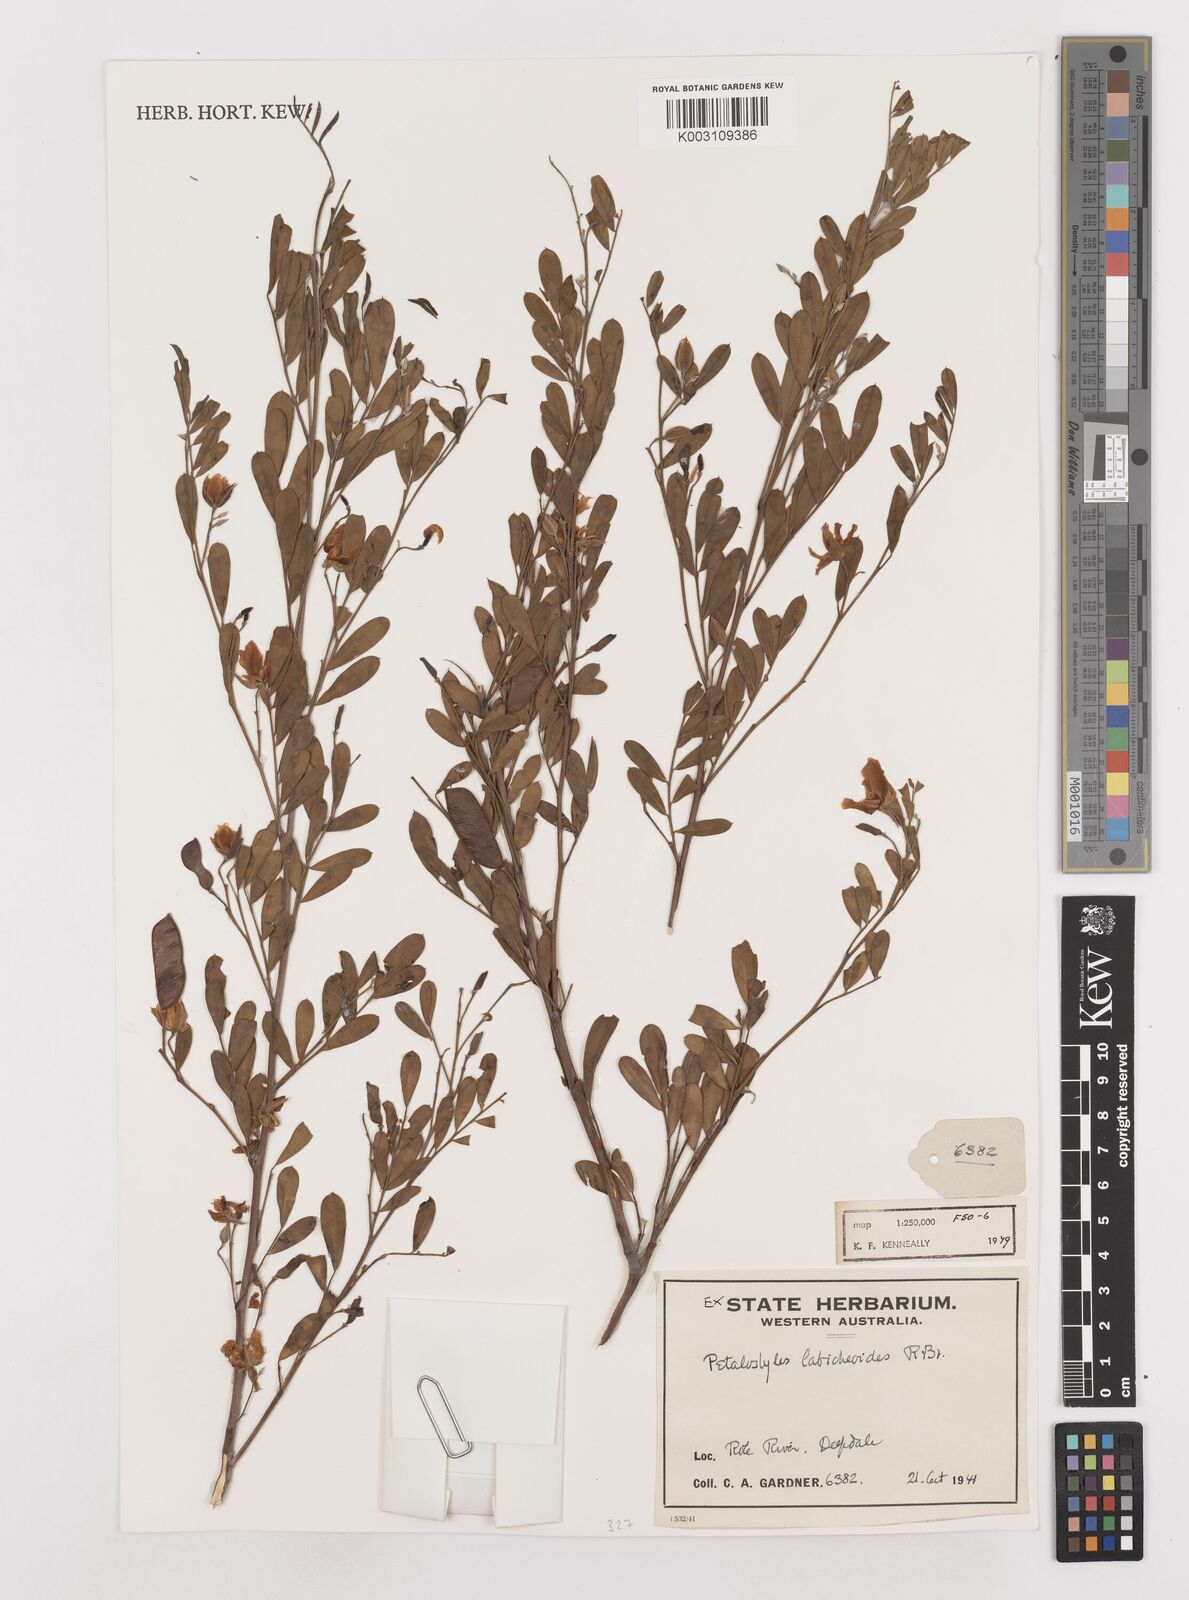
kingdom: Plantae
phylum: Tracheophyta
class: Magnoliopsida
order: Fabales
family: Fabaceae
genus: Petalostylis
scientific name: Petalostylis labicheoides
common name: Butterfly bush
